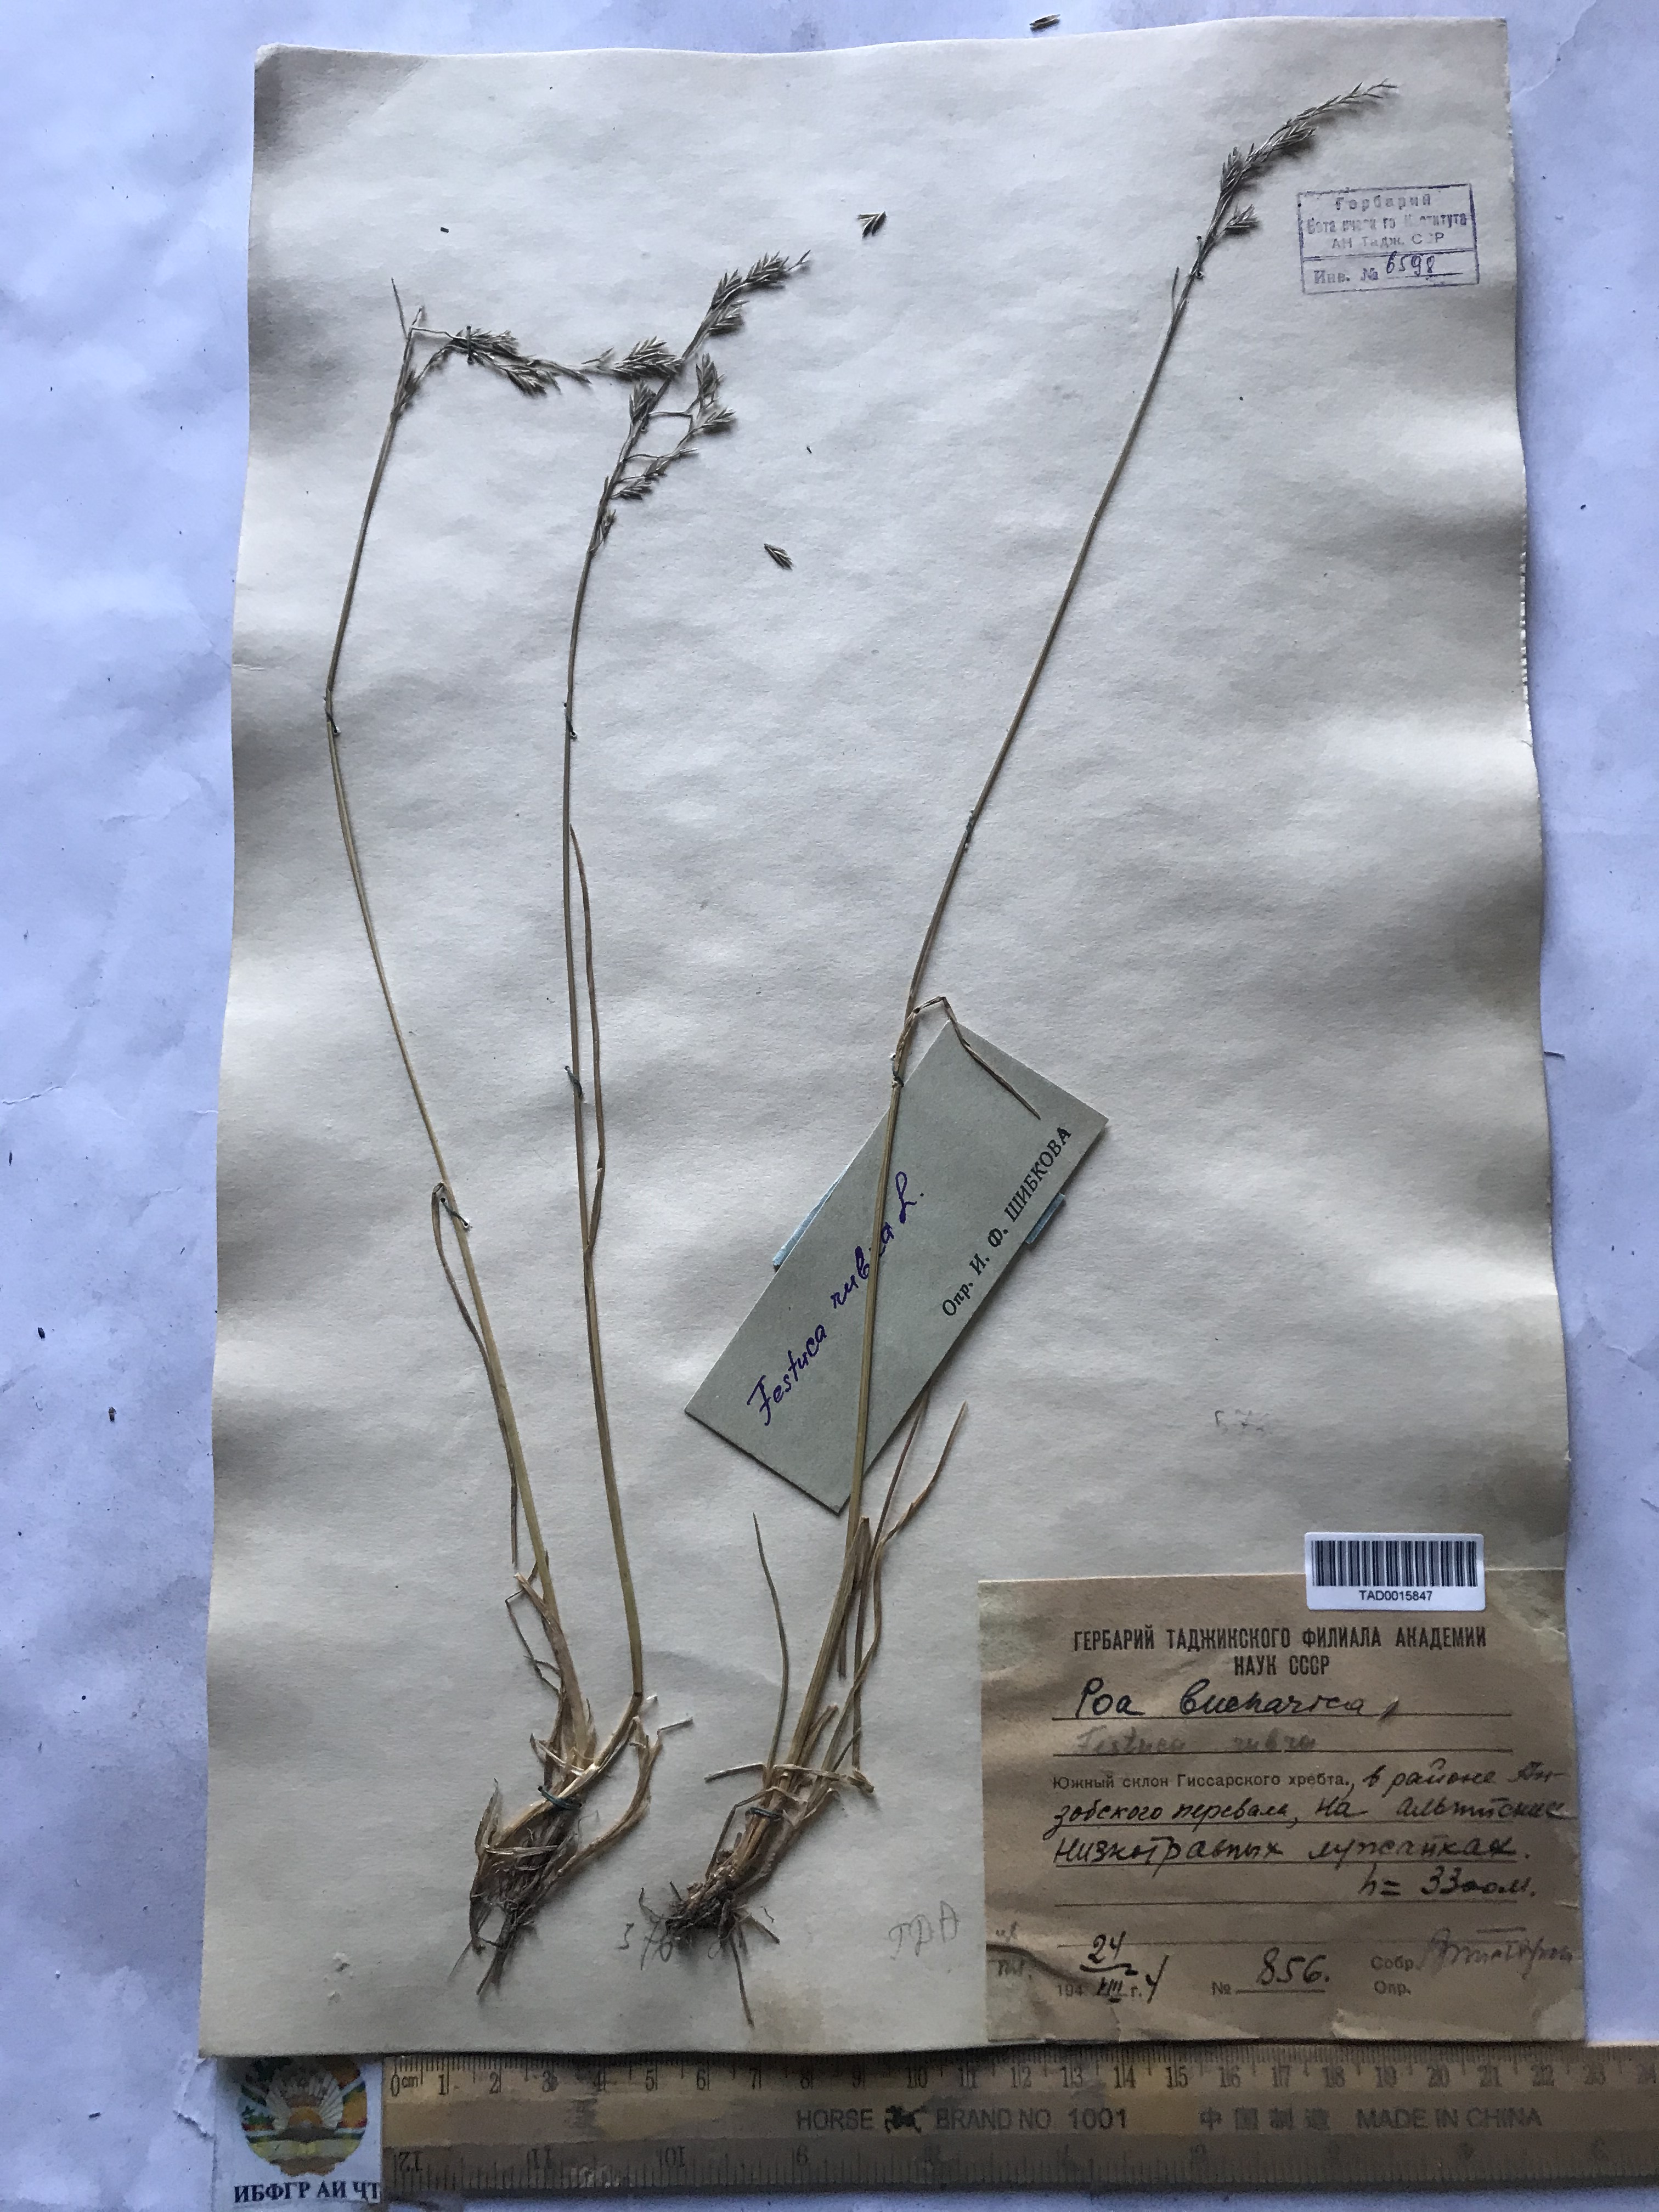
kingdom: Plantae
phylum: Tracheophyta
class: Liliopsida
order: Poales
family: Poaceae
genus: Festuca
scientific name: Festuca rubra
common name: Red fescue
